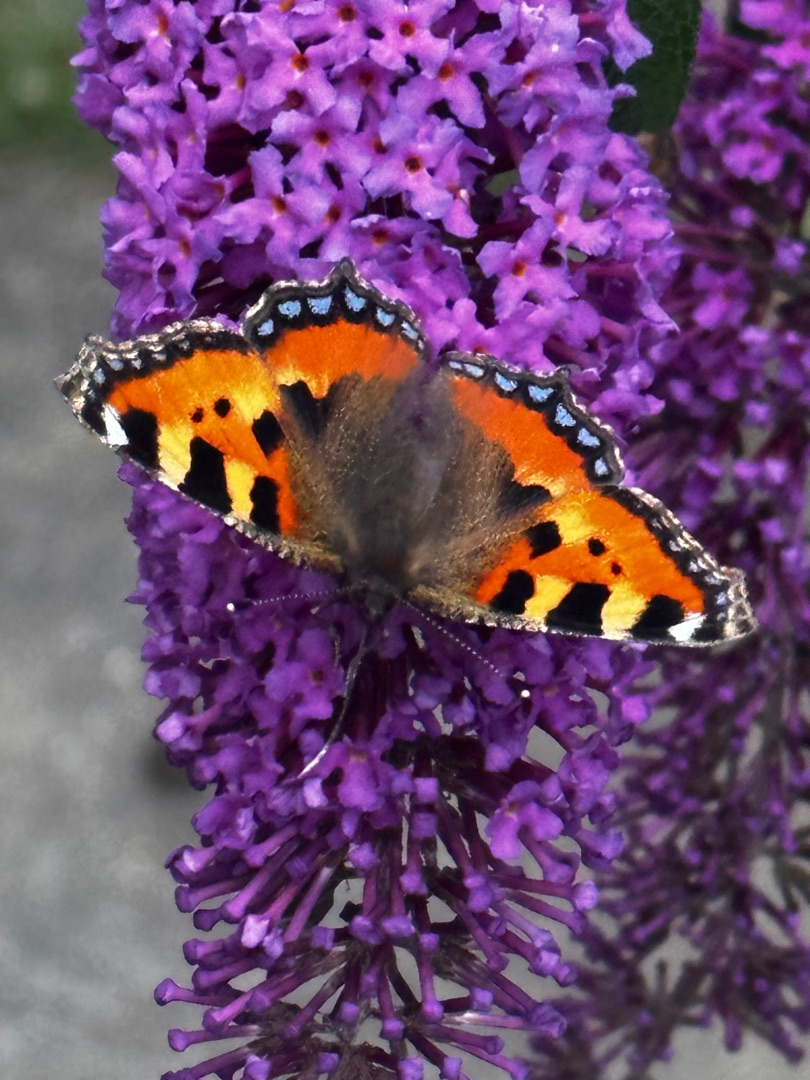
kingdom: Animalia
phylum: Arthropoda
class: Insecta
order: Lepidoptera
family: Nymphalidae
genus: Aglais
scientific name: Aglais urticae
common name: Nældens takvinge
